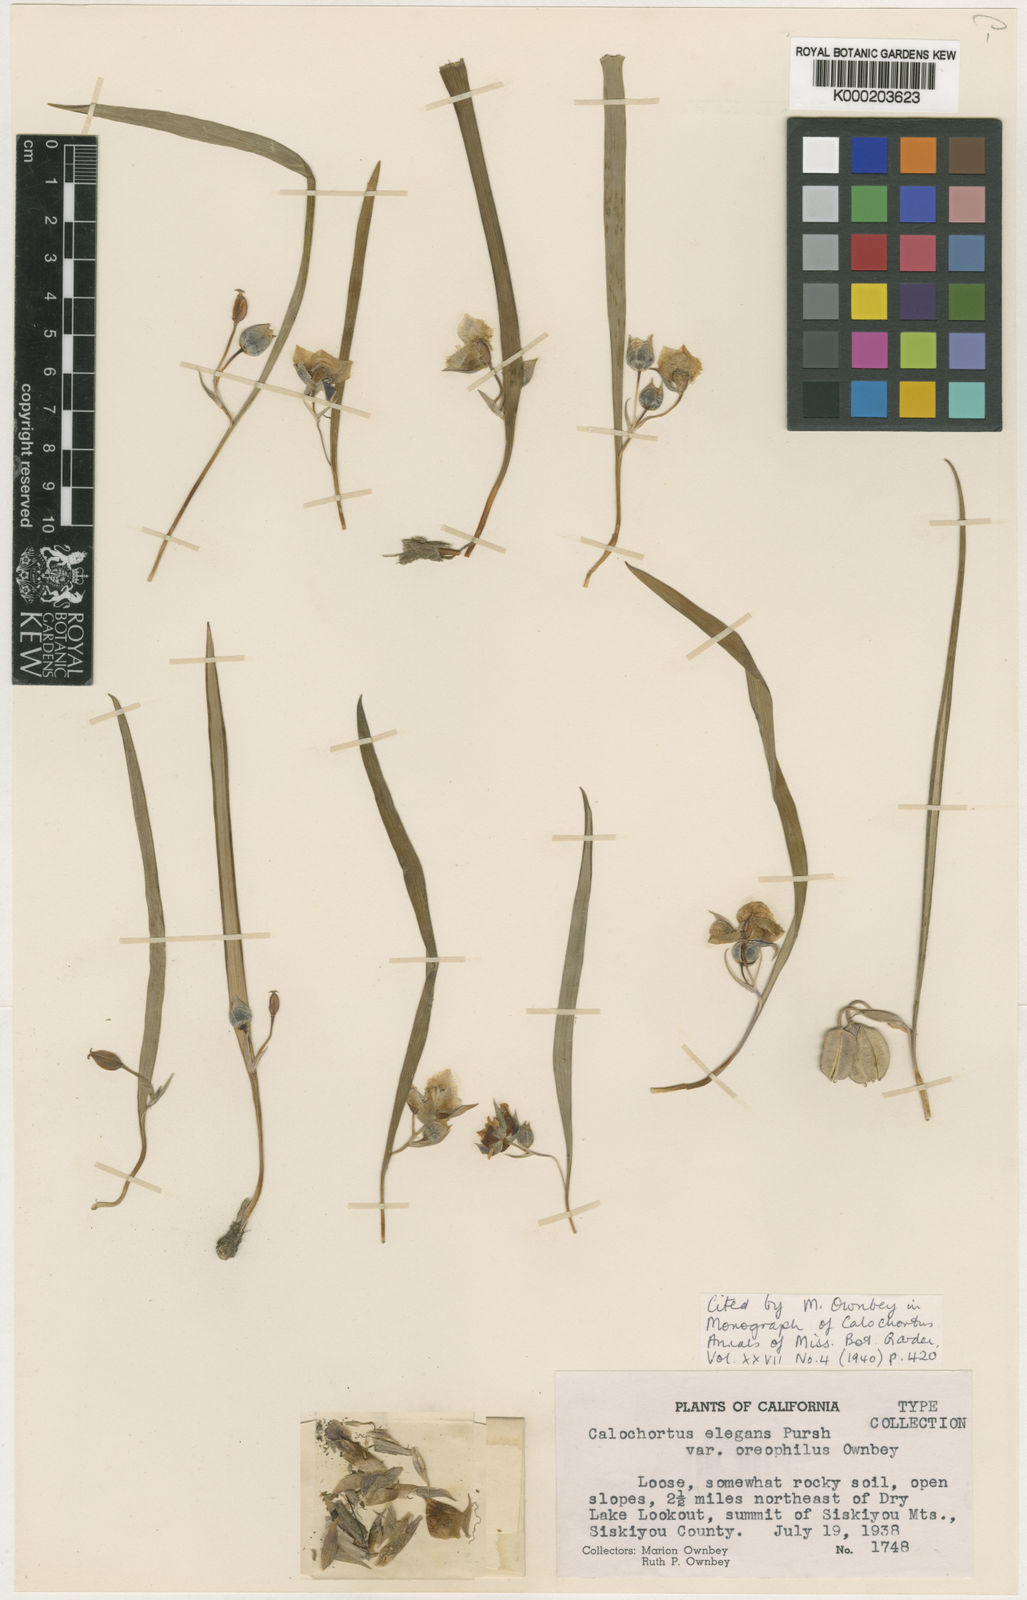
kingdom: Plantae
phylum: Tracheophyta
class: Liliopsida
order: Liliales
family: Liliaceae
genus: Calochortus
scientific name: Calochortus elegans
